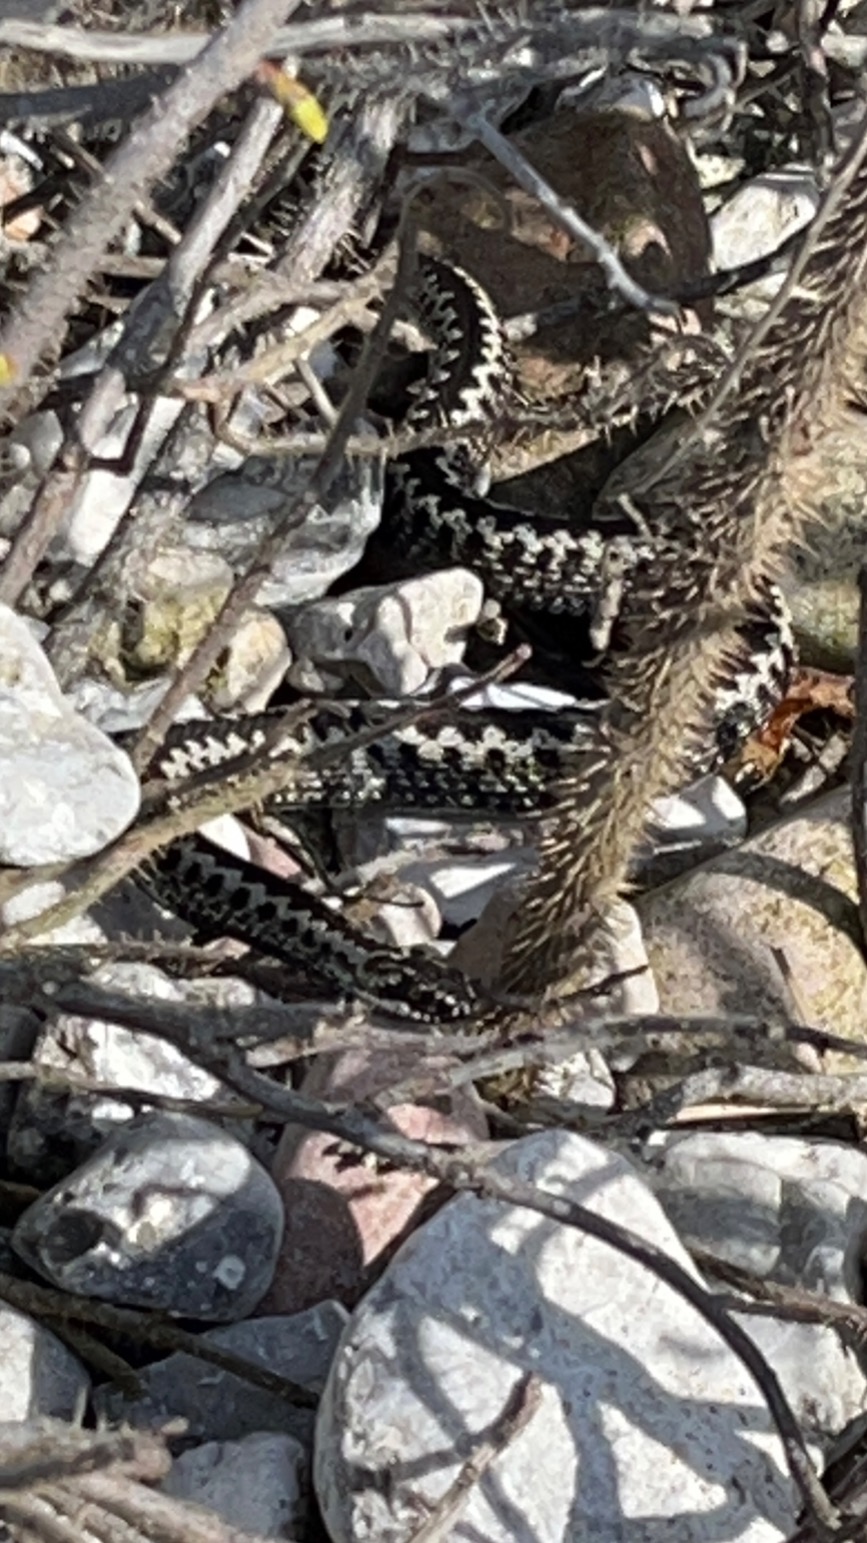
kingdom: Animalia
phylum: Chordata
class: Squamata
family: Viperidae
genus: Vipera
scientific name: Vipera berus
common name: Hugorm
